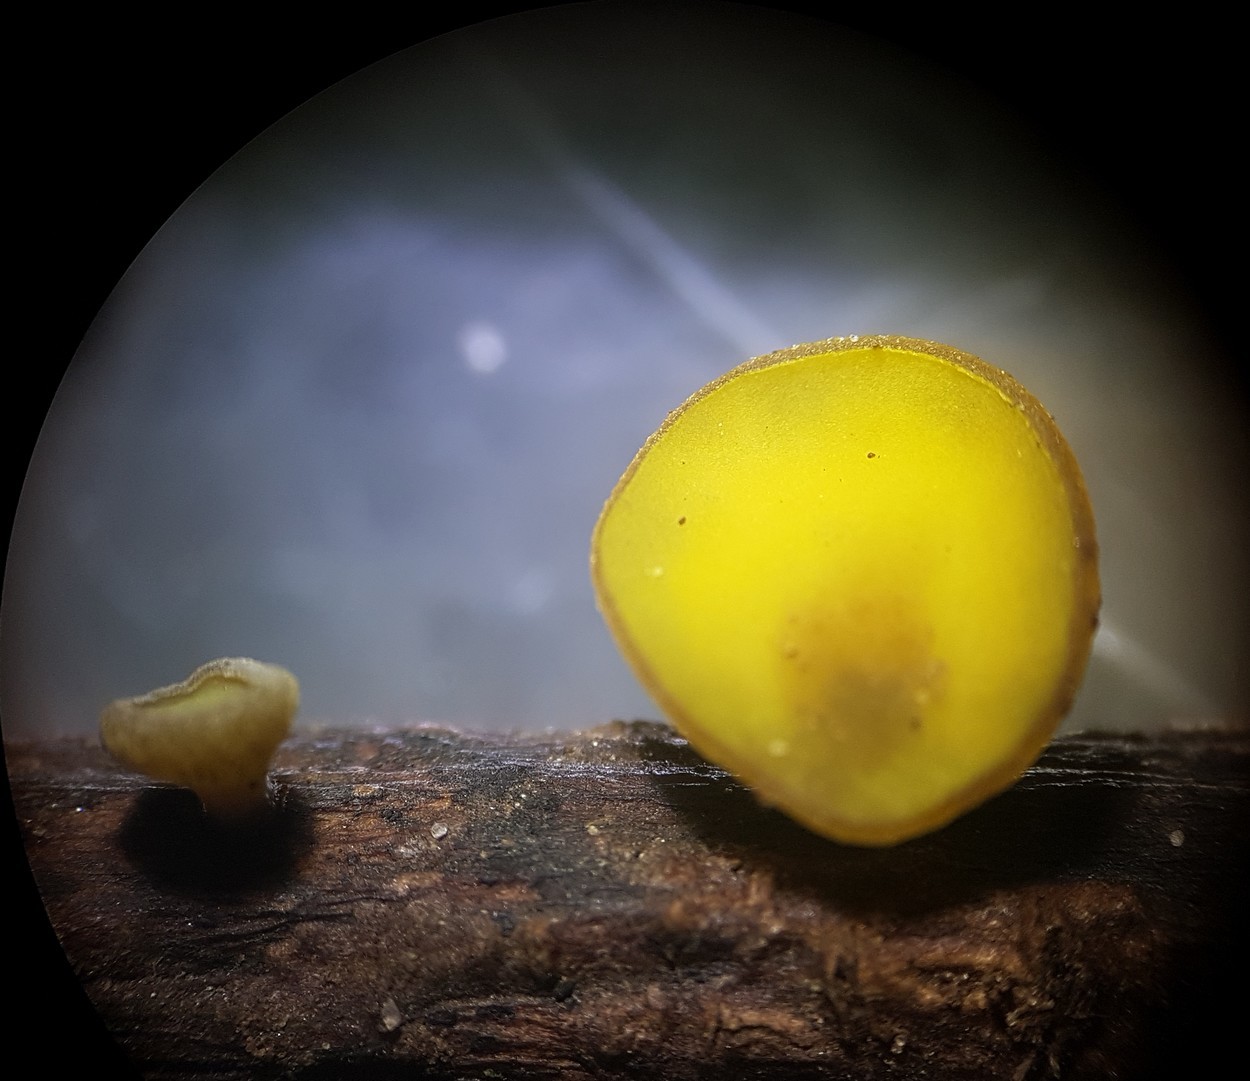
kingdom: Fungi
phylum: Ascomycota
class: Leotiomycetes
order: Helotiales
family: Rutstroemiaceae
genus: Lanzia
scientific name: Lanzia luteovirescens
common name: olivengul brunskive
